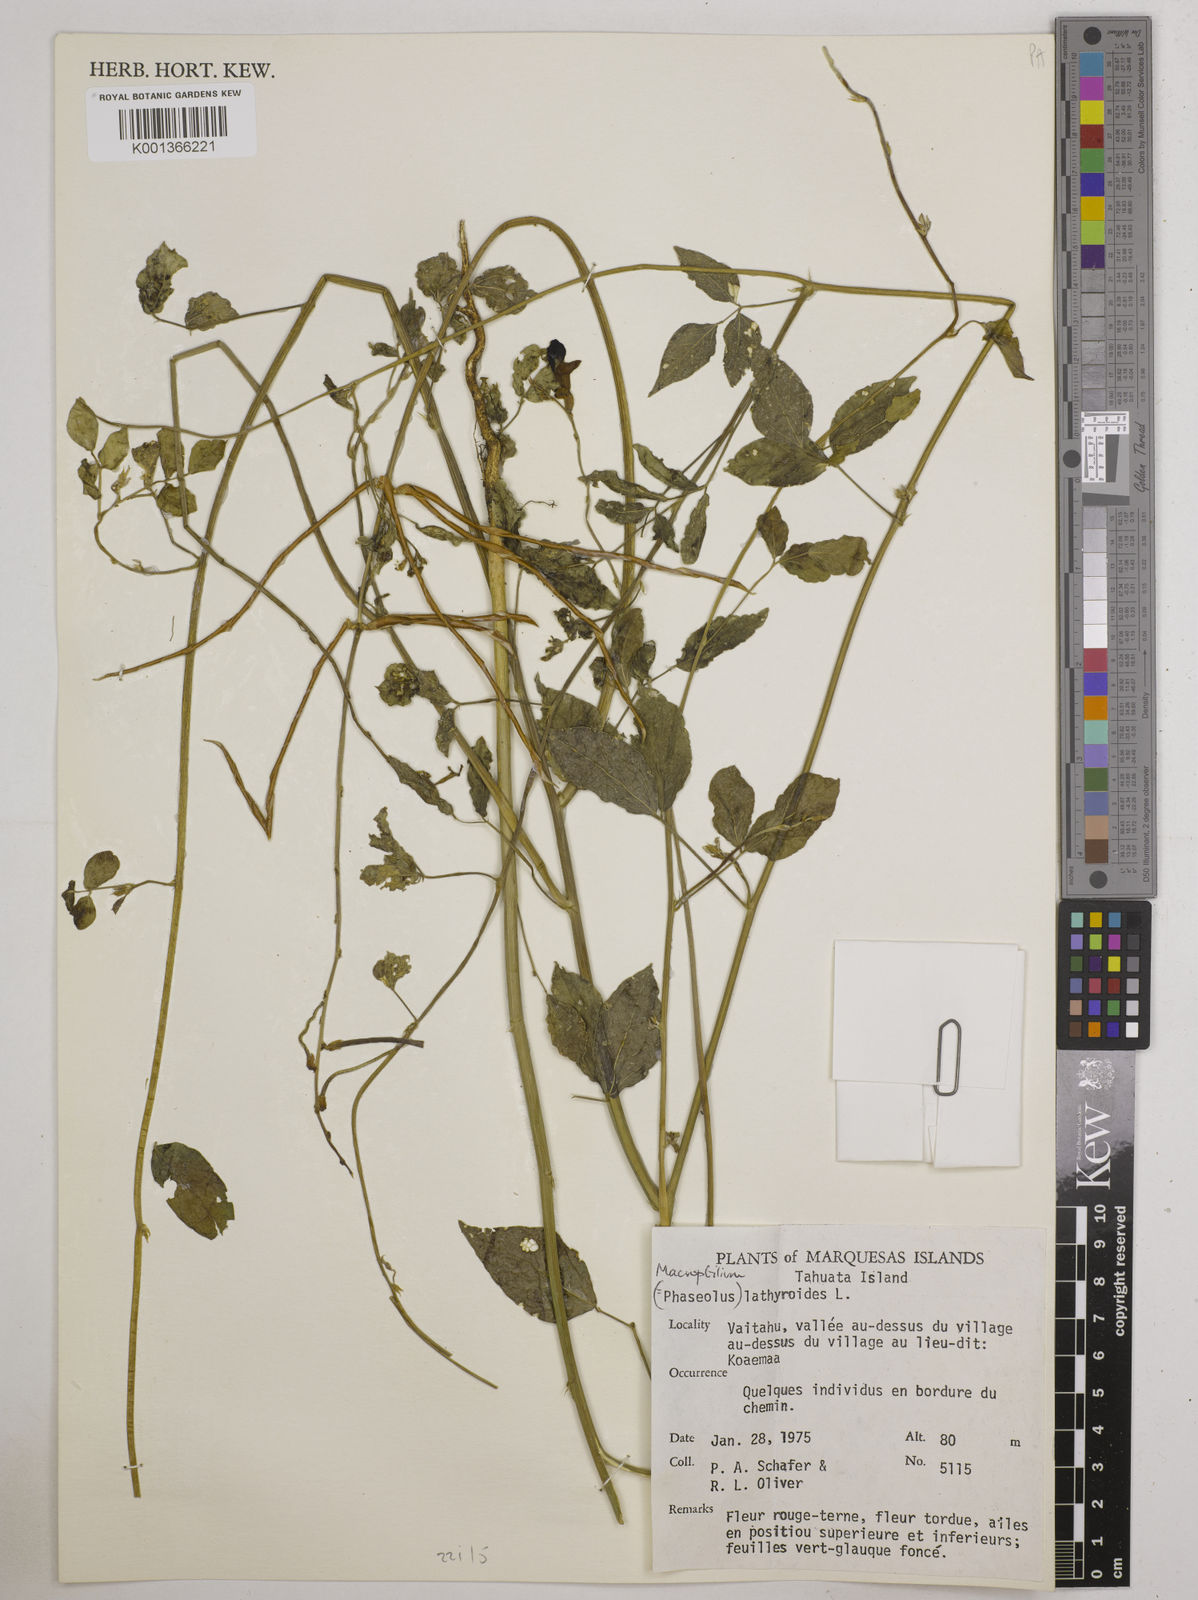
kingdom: Plantae
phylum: Tracheophyta
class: Magnoliopsida
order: Fabales
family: Fabaceae
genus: Macroptilium
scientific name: Macroptilium lathyroides
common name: Wild bushbean
